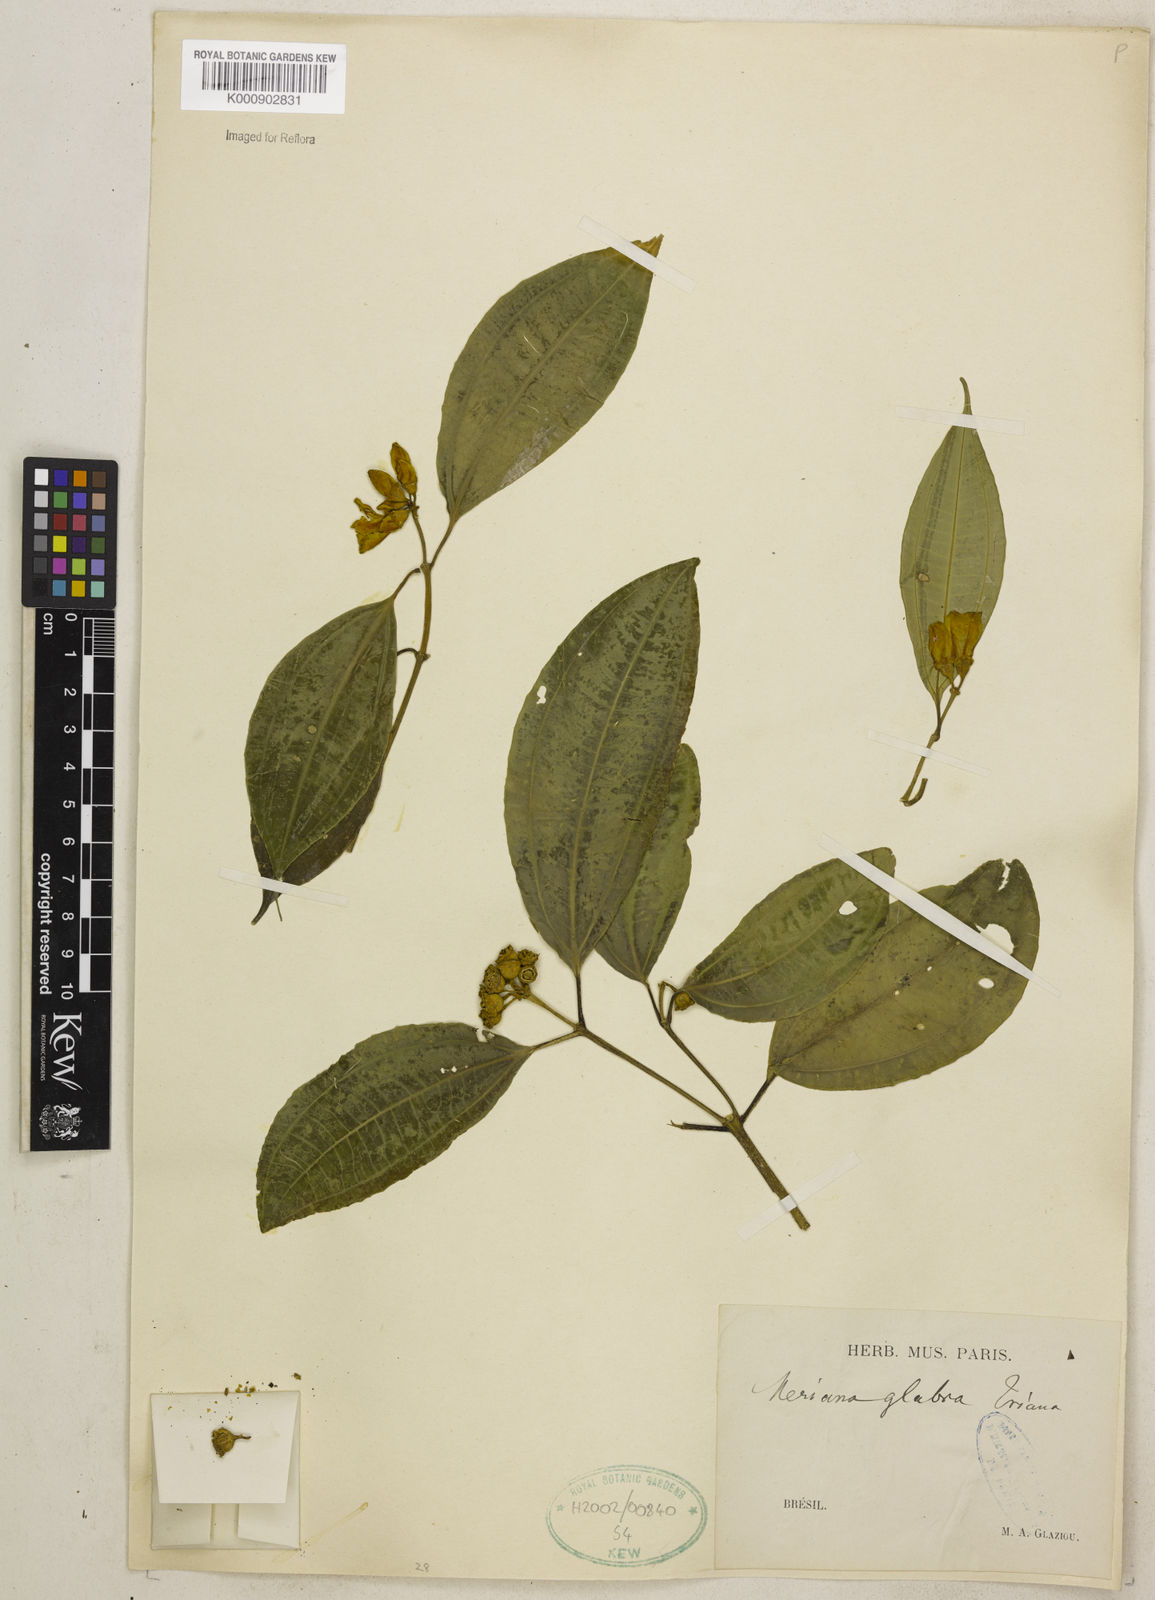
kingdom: Plantae
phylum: Tracheophyta
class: Magnoliopsida
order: Myrtales
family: Melastomataceae
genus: Meriania
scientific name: Meriania glabra
